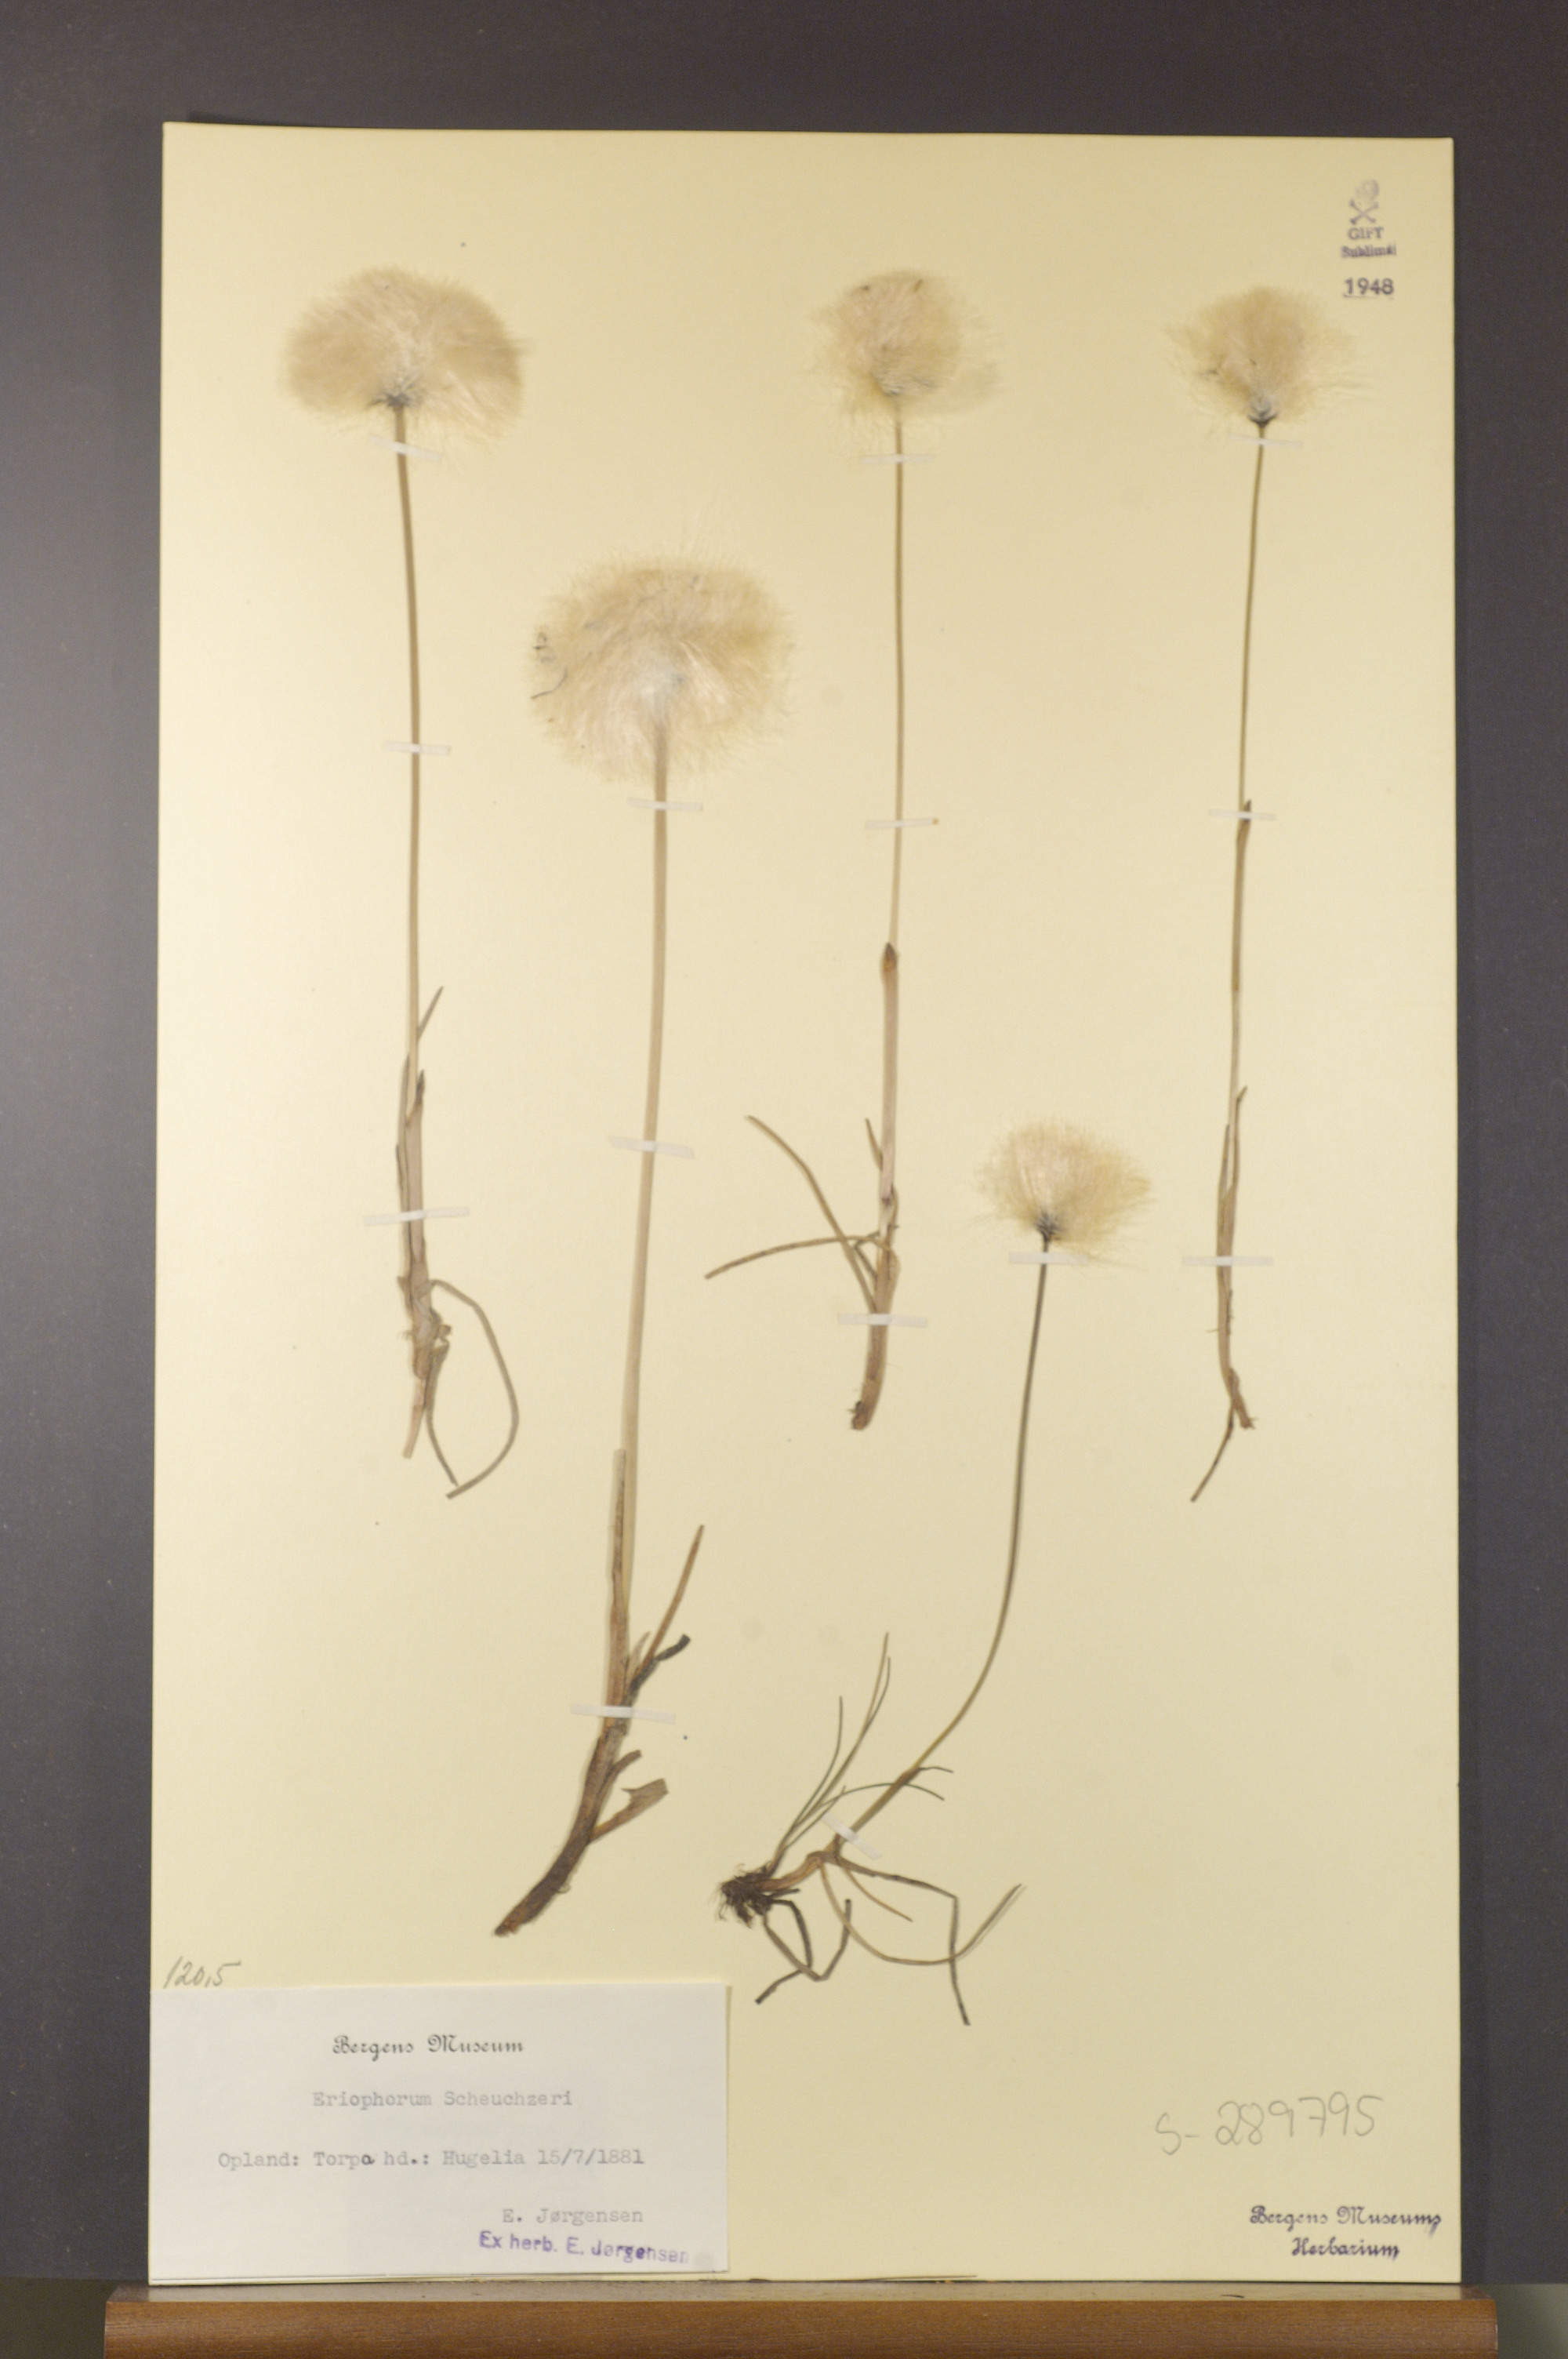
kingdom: Plantae
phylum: Tracheophyta
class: Liliopsida
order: Poales
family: Cyperaceae
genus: Eriophorum
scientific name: Eriophorum scheuchzeri
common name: Scheuchzer's cottongrass
